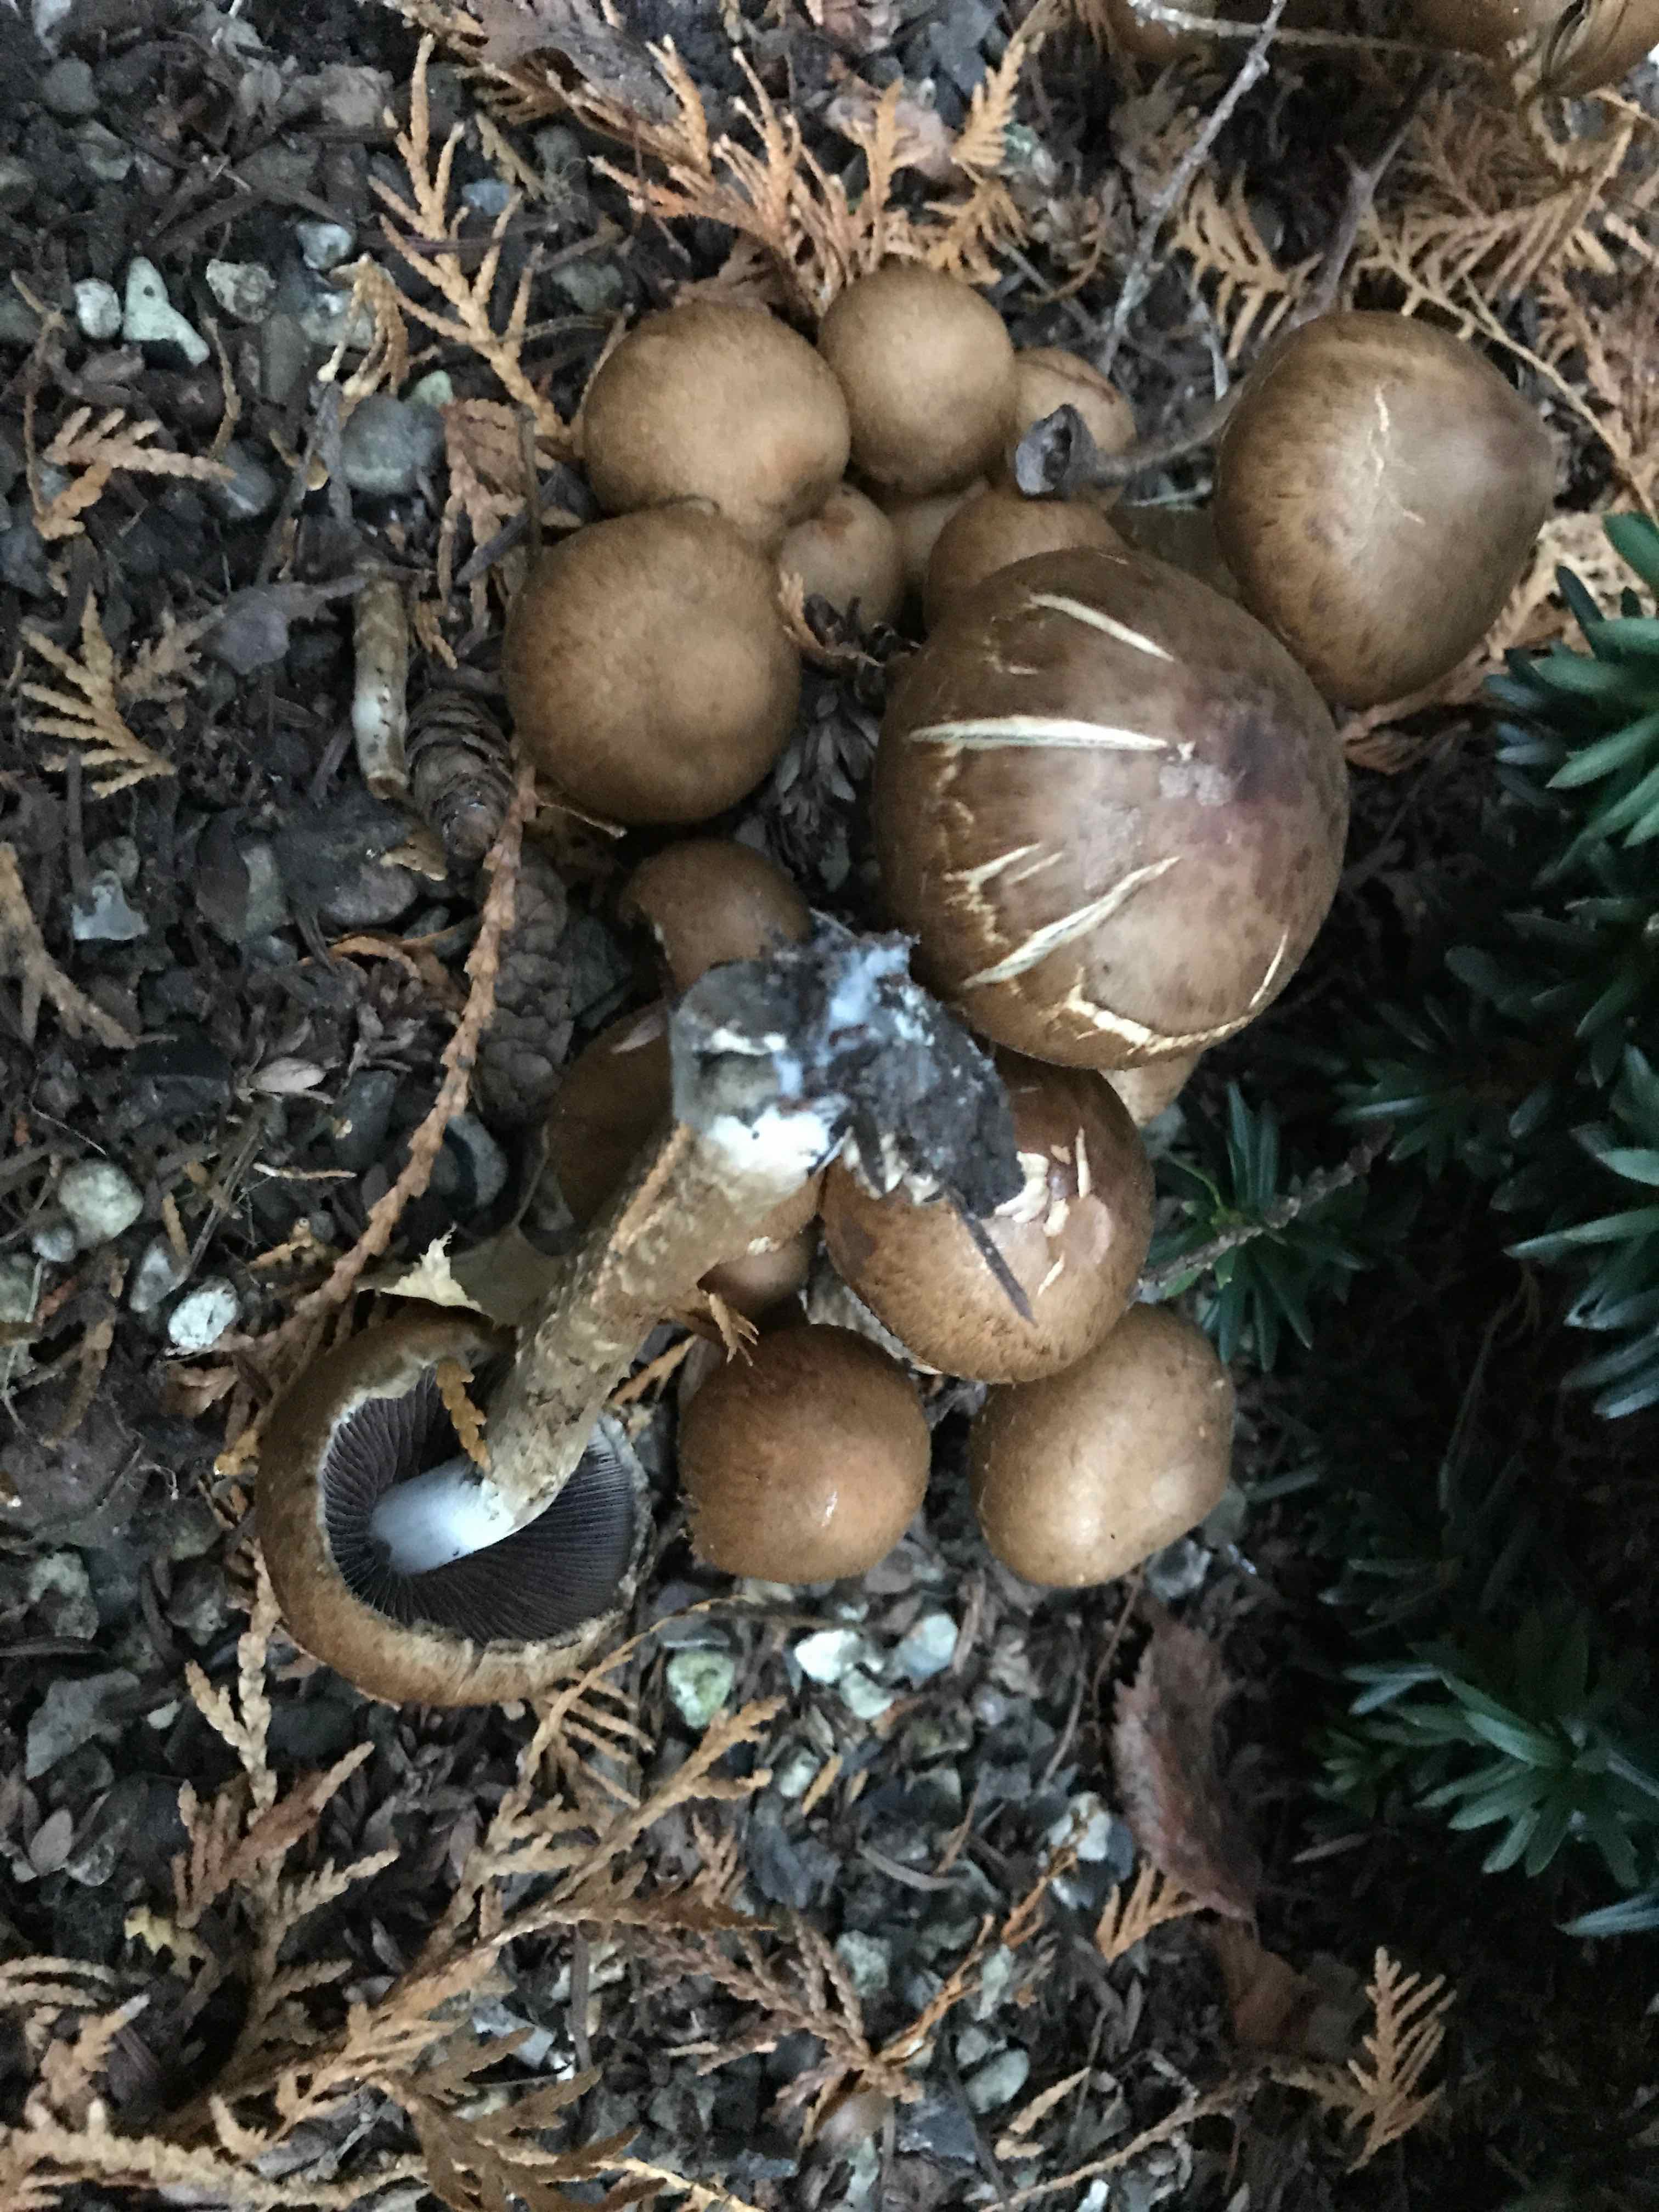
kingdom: Fungi
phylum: Basidiomycota
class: Agaricomycetes
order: Agaricales
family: Psathyrellaceae
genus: Lacrymaria
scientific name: Lacrymaria lacrymabunda
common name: grædende mørkhat
